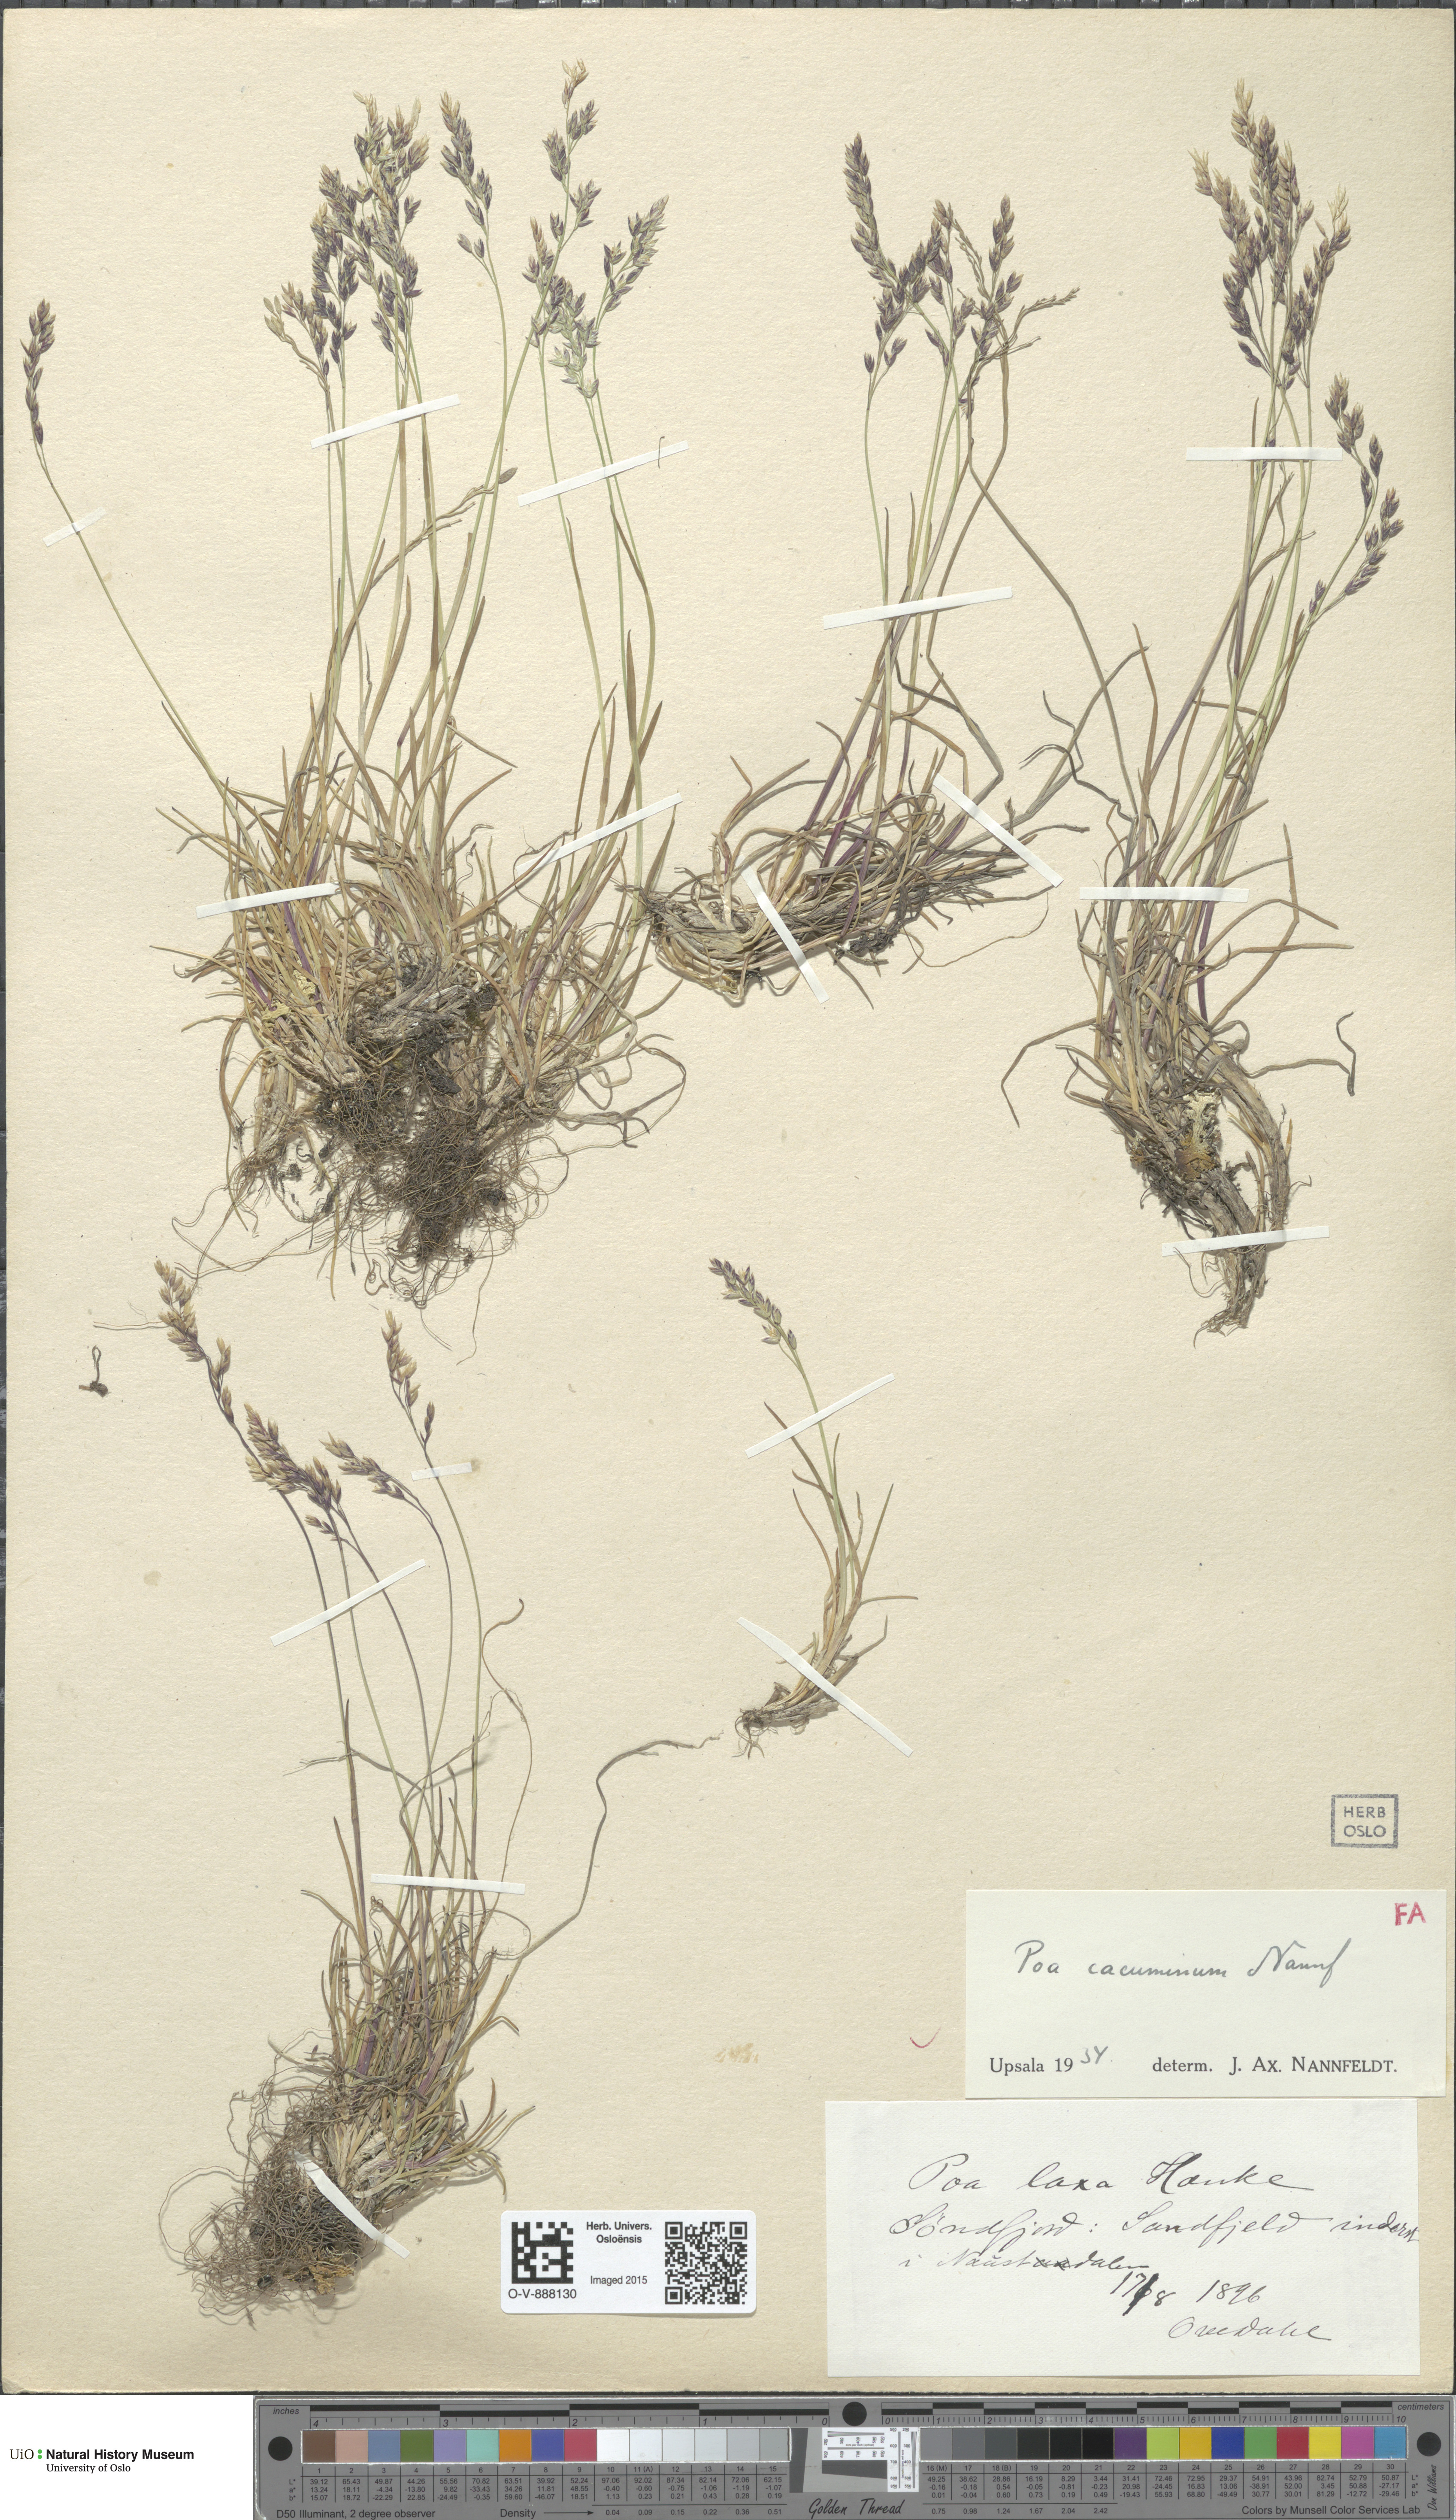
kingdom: Plantae
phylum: Tracheophyta
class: Liliopsida
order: Poales
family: Poaceae
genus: Poa
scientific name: Poa flexuosa
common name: Wavy meadow-grass
